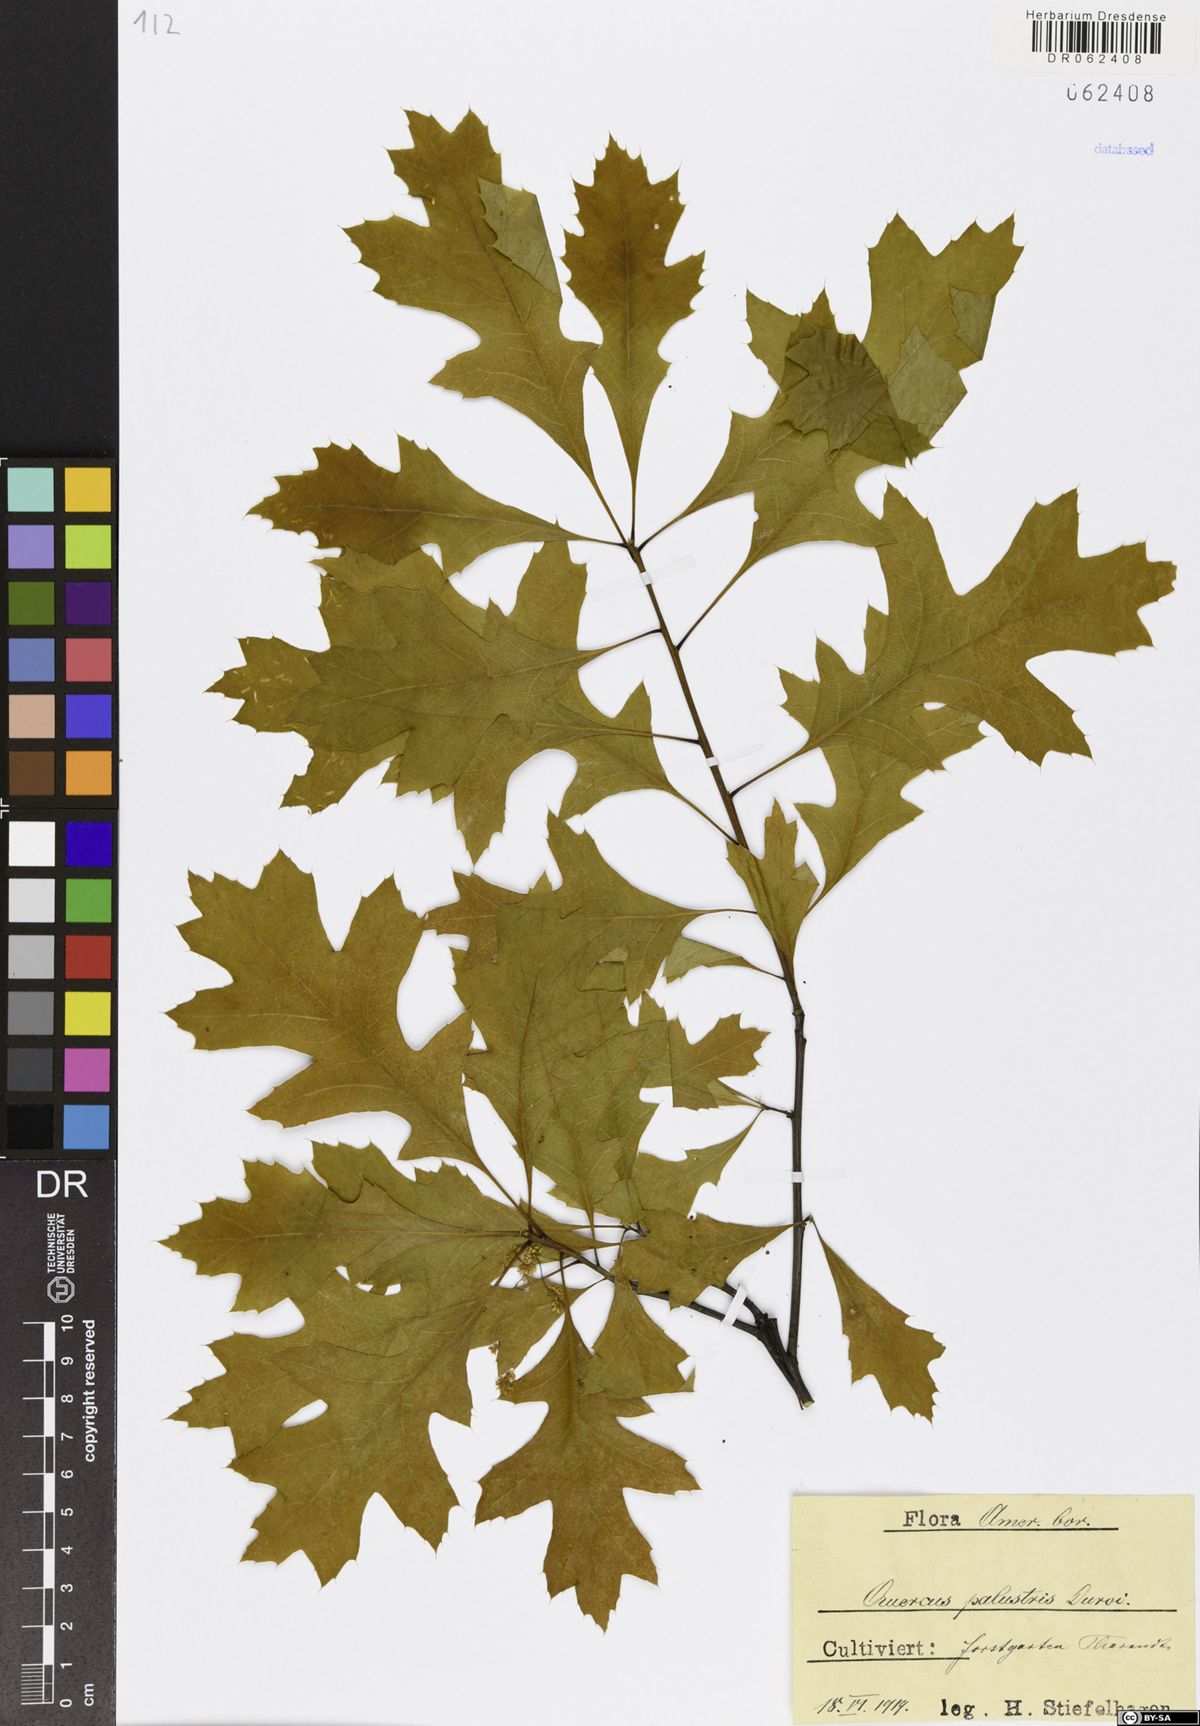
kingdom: Plantae
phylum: Tracheophyta
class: Magnoliopsida
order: Fagales
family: Fagaceae
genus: Quercus
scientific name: Quercus palustris
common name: Pin oak
